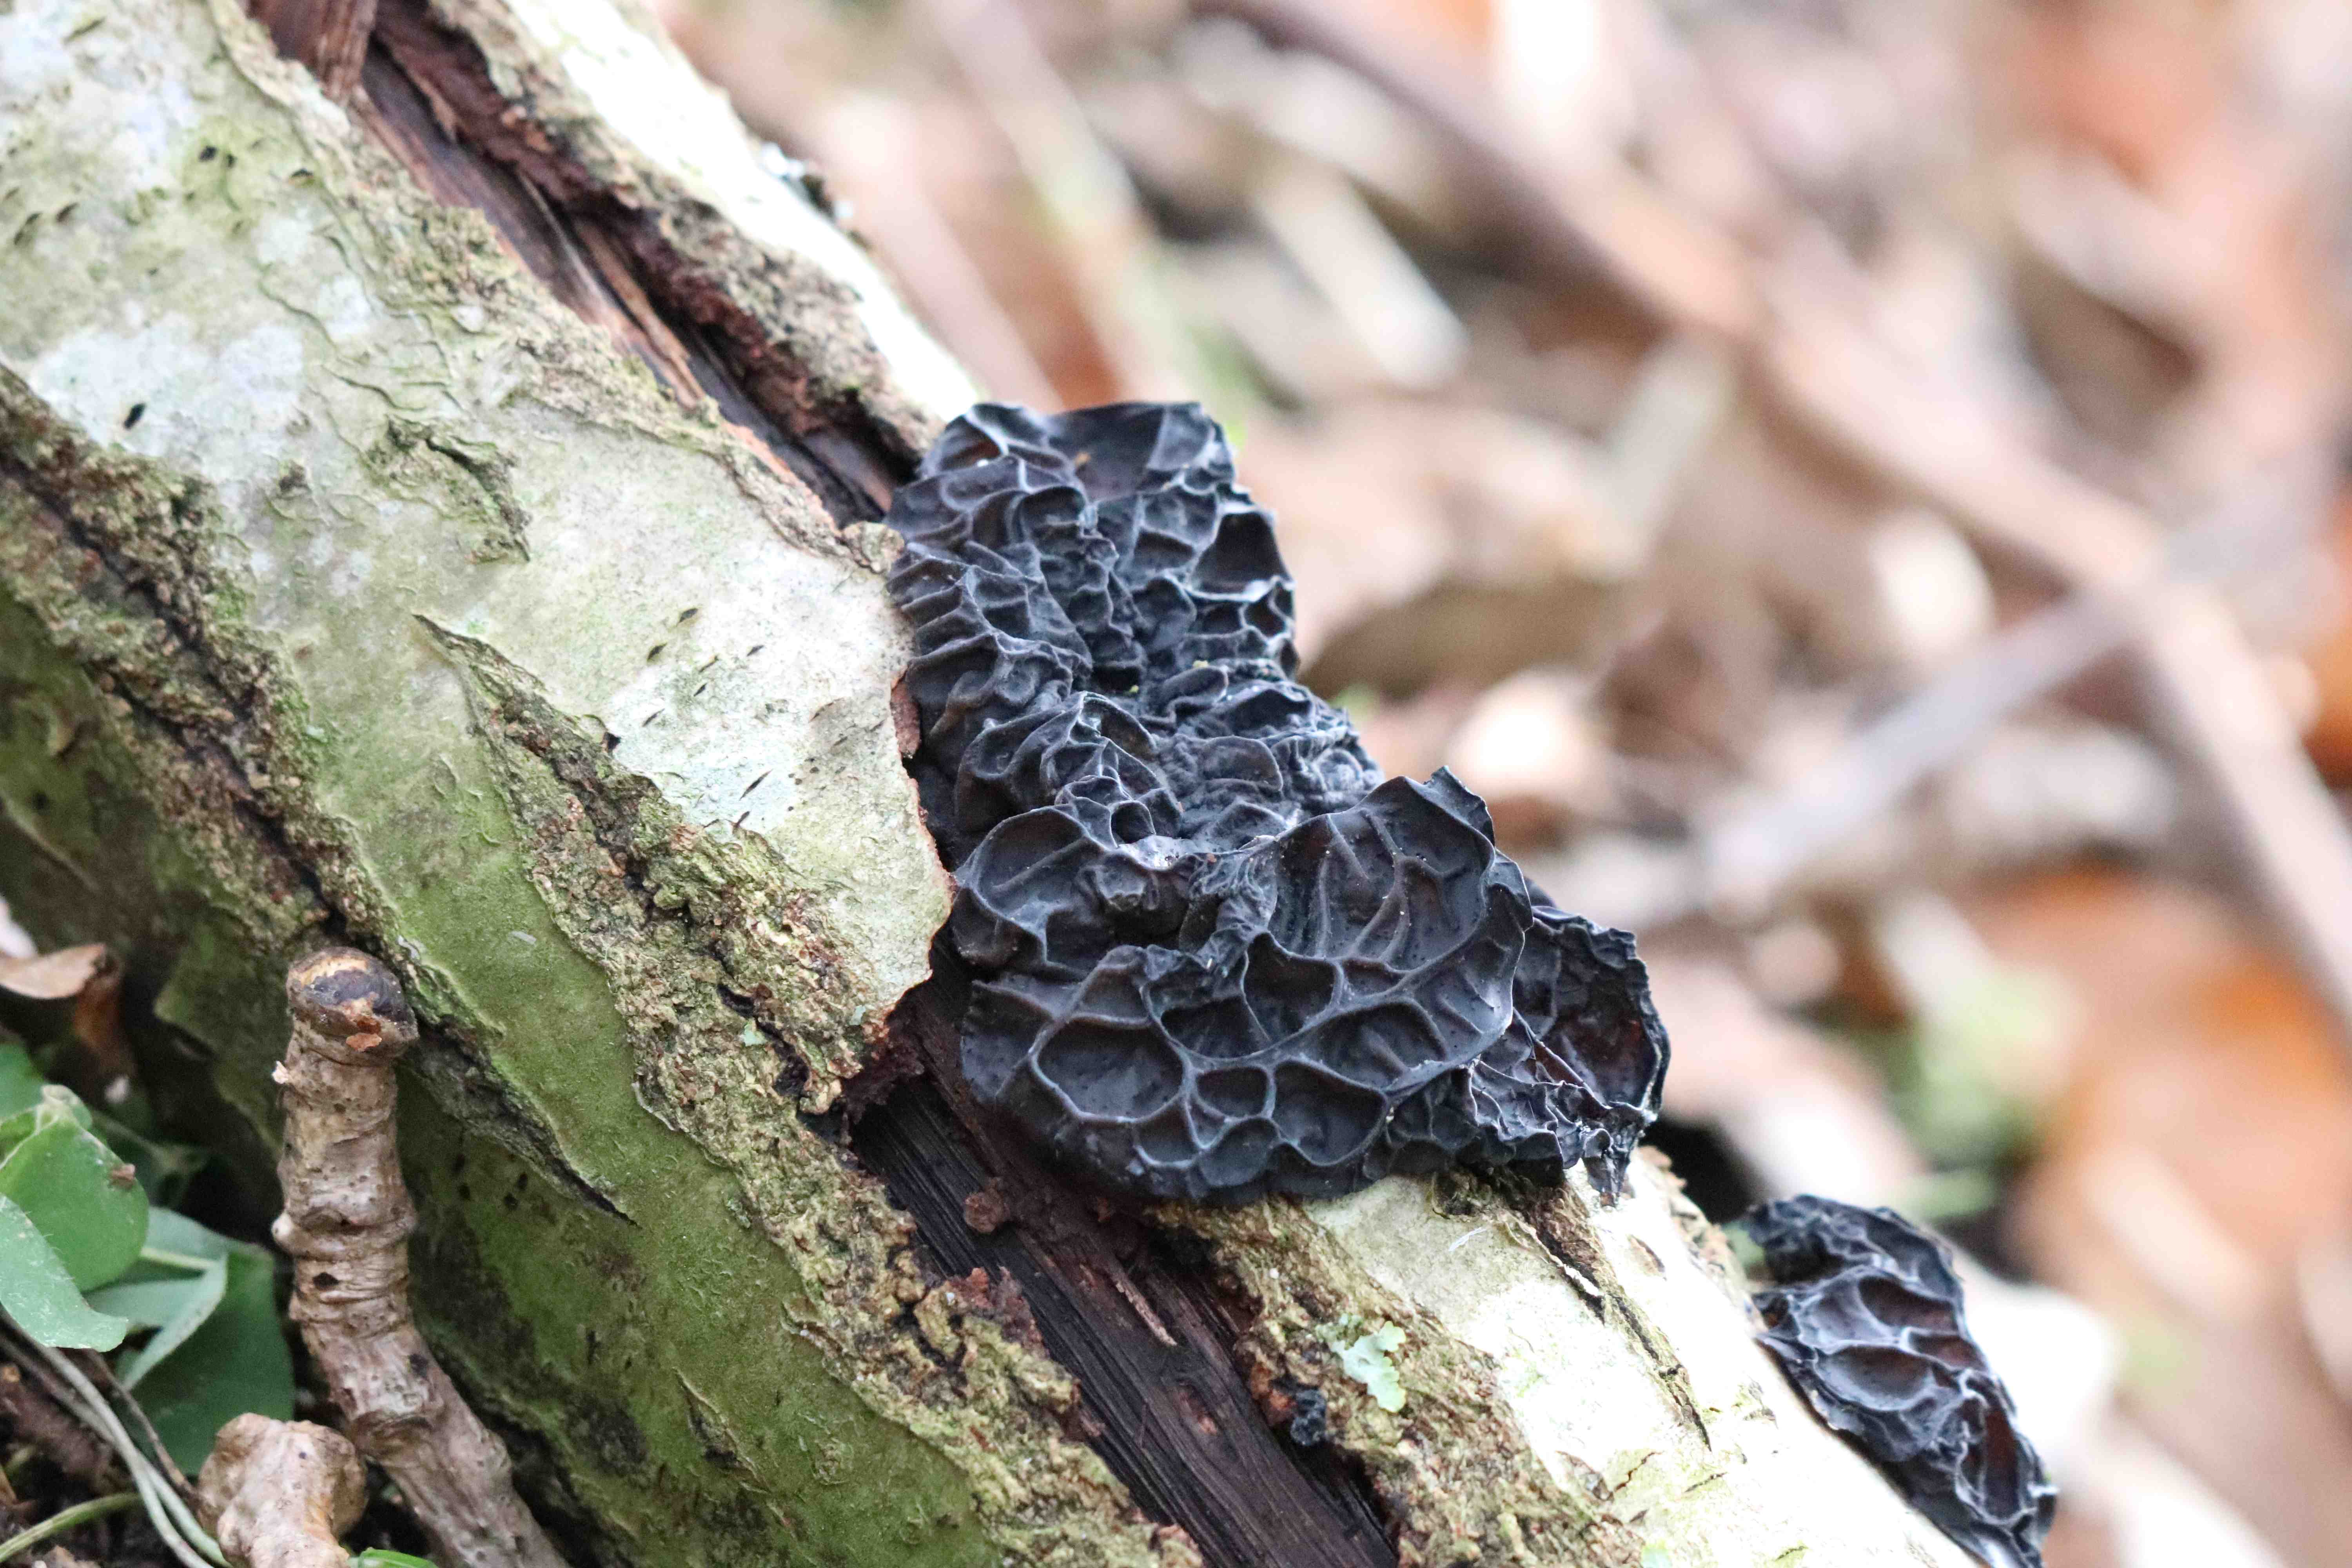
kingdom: Fungi
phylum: Basidiomycota
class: Agaricomycetes
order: Auriculariales
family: Auriculariaceae
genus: Exidia
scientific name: Exidia glandulosa
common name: ege-bævretop
